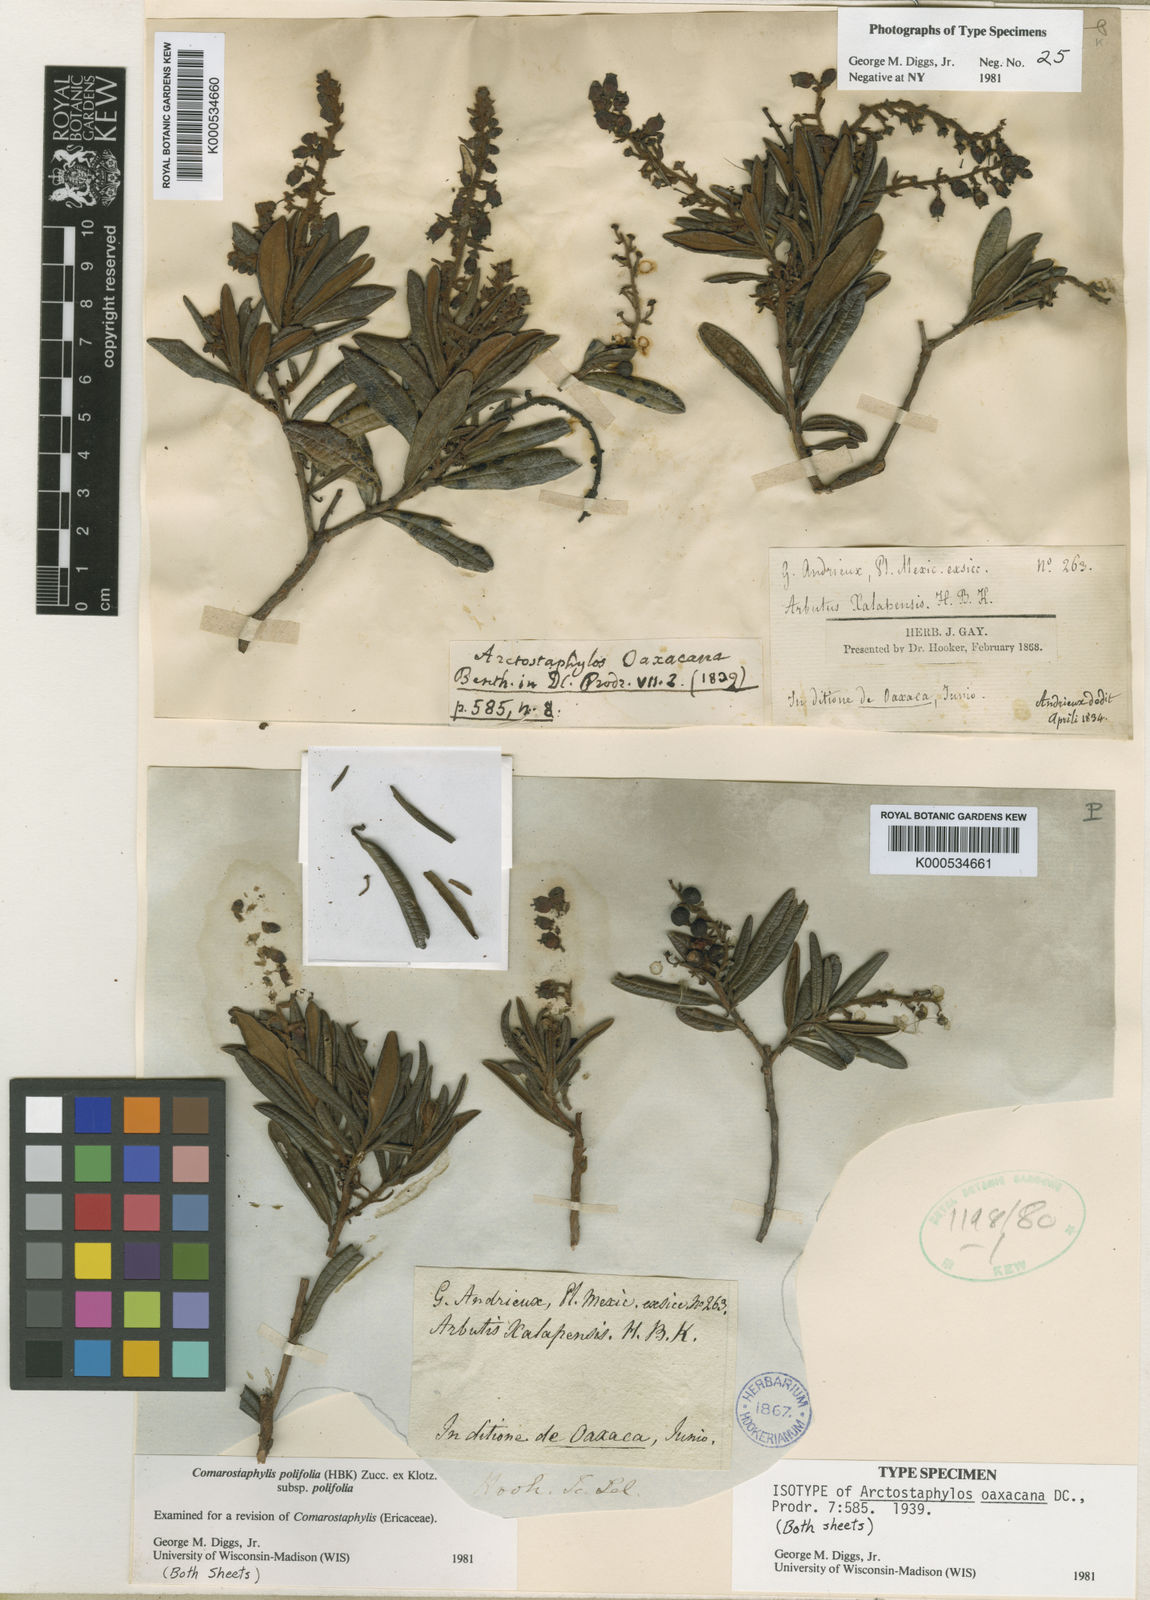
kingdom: Plantae
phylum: Tracheophyta
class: Magnoliopsida
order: Ericales
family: Ericaceae
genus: Comarostaphylis
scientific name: Comarostaphylis polifolia
